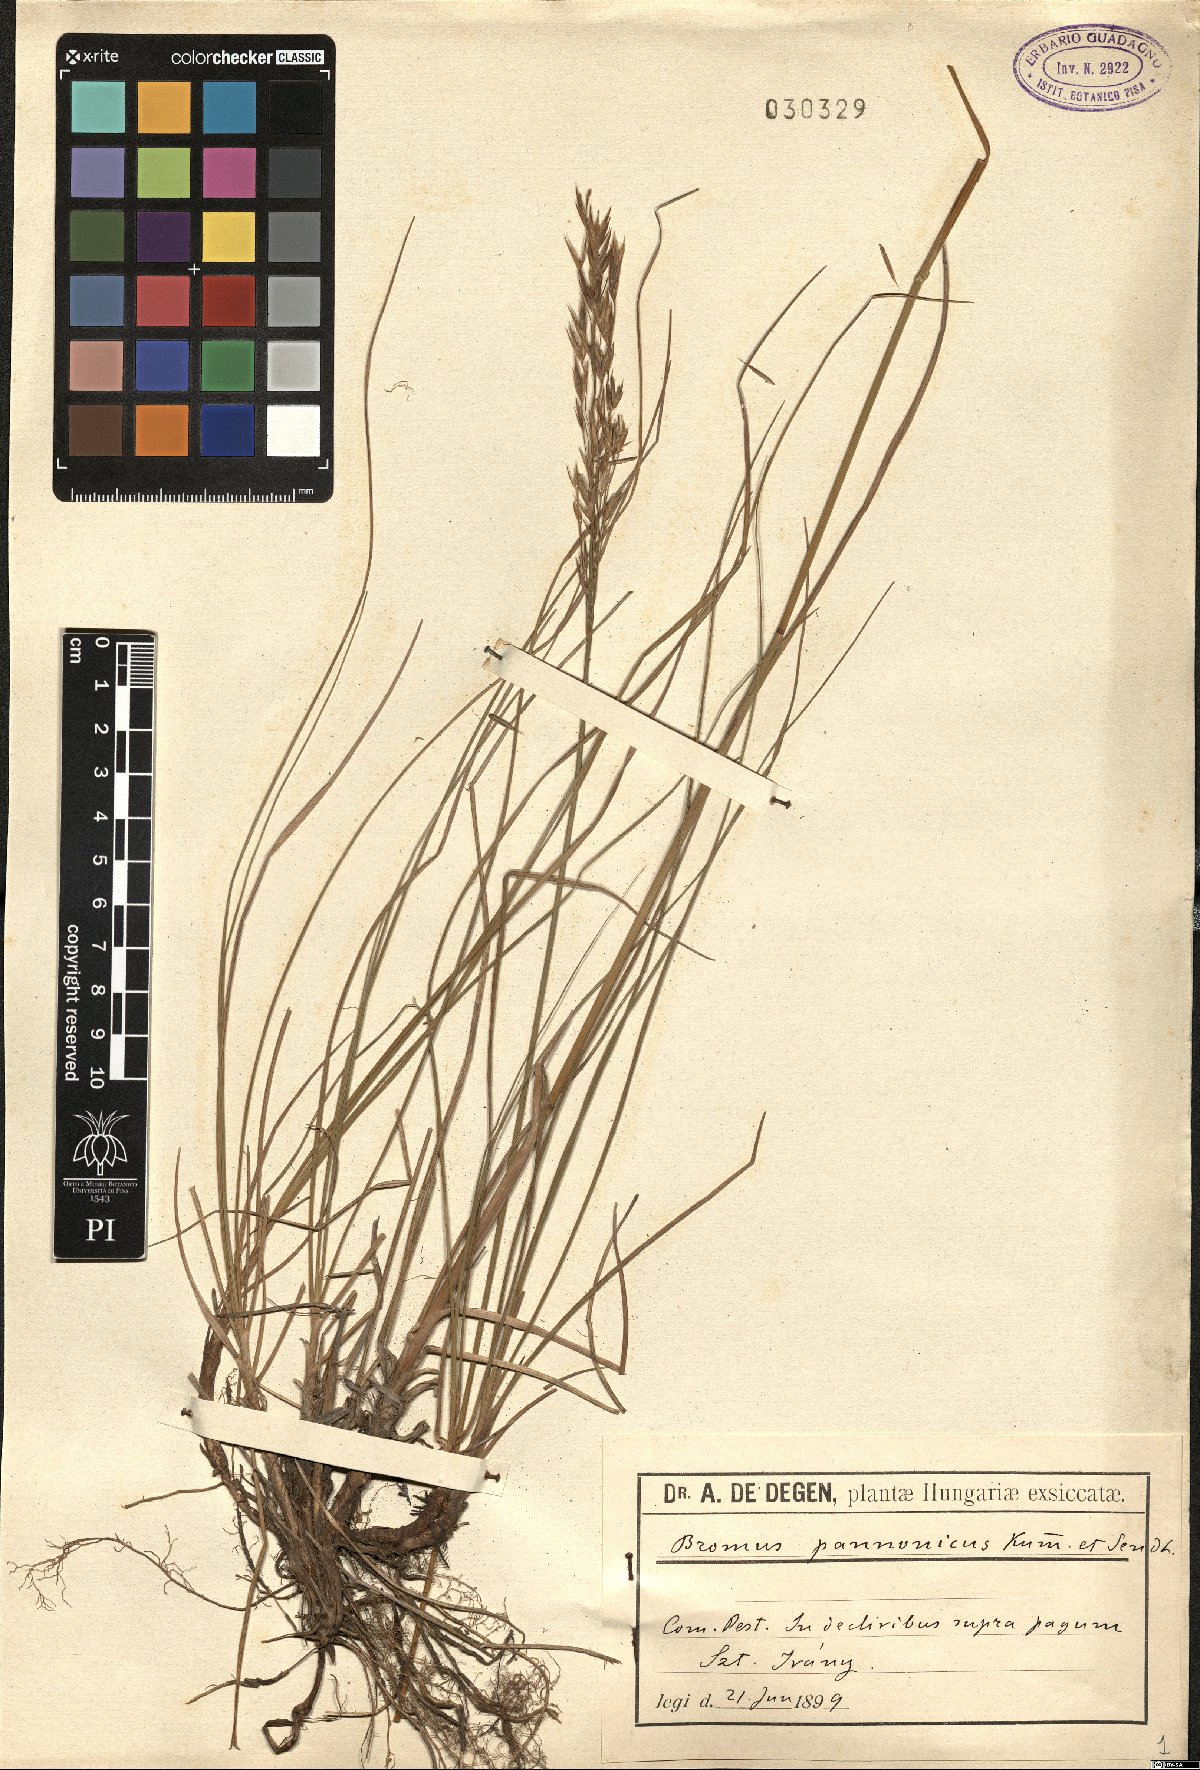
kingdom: Plantae
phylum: Tracheophyta
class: Liliopsida
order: Poales
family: Poaceae
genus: Bromus
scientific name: Bromus pannonicus
